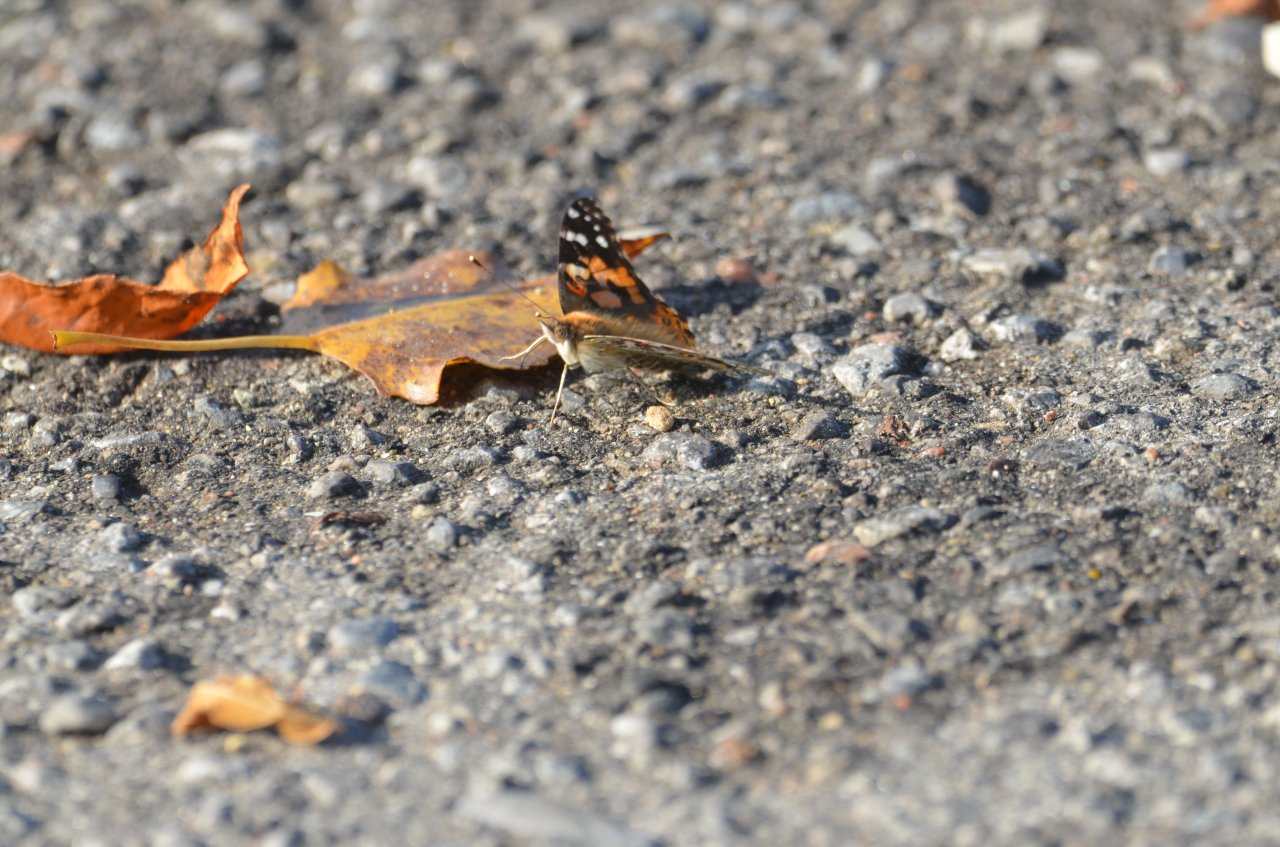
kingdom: Animalia
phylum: Arthropoda
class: Insecta
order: Lepidoptera
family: Nymphalidae
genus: Vanessa
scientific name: Vanessa cardui
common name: Painted Lady
